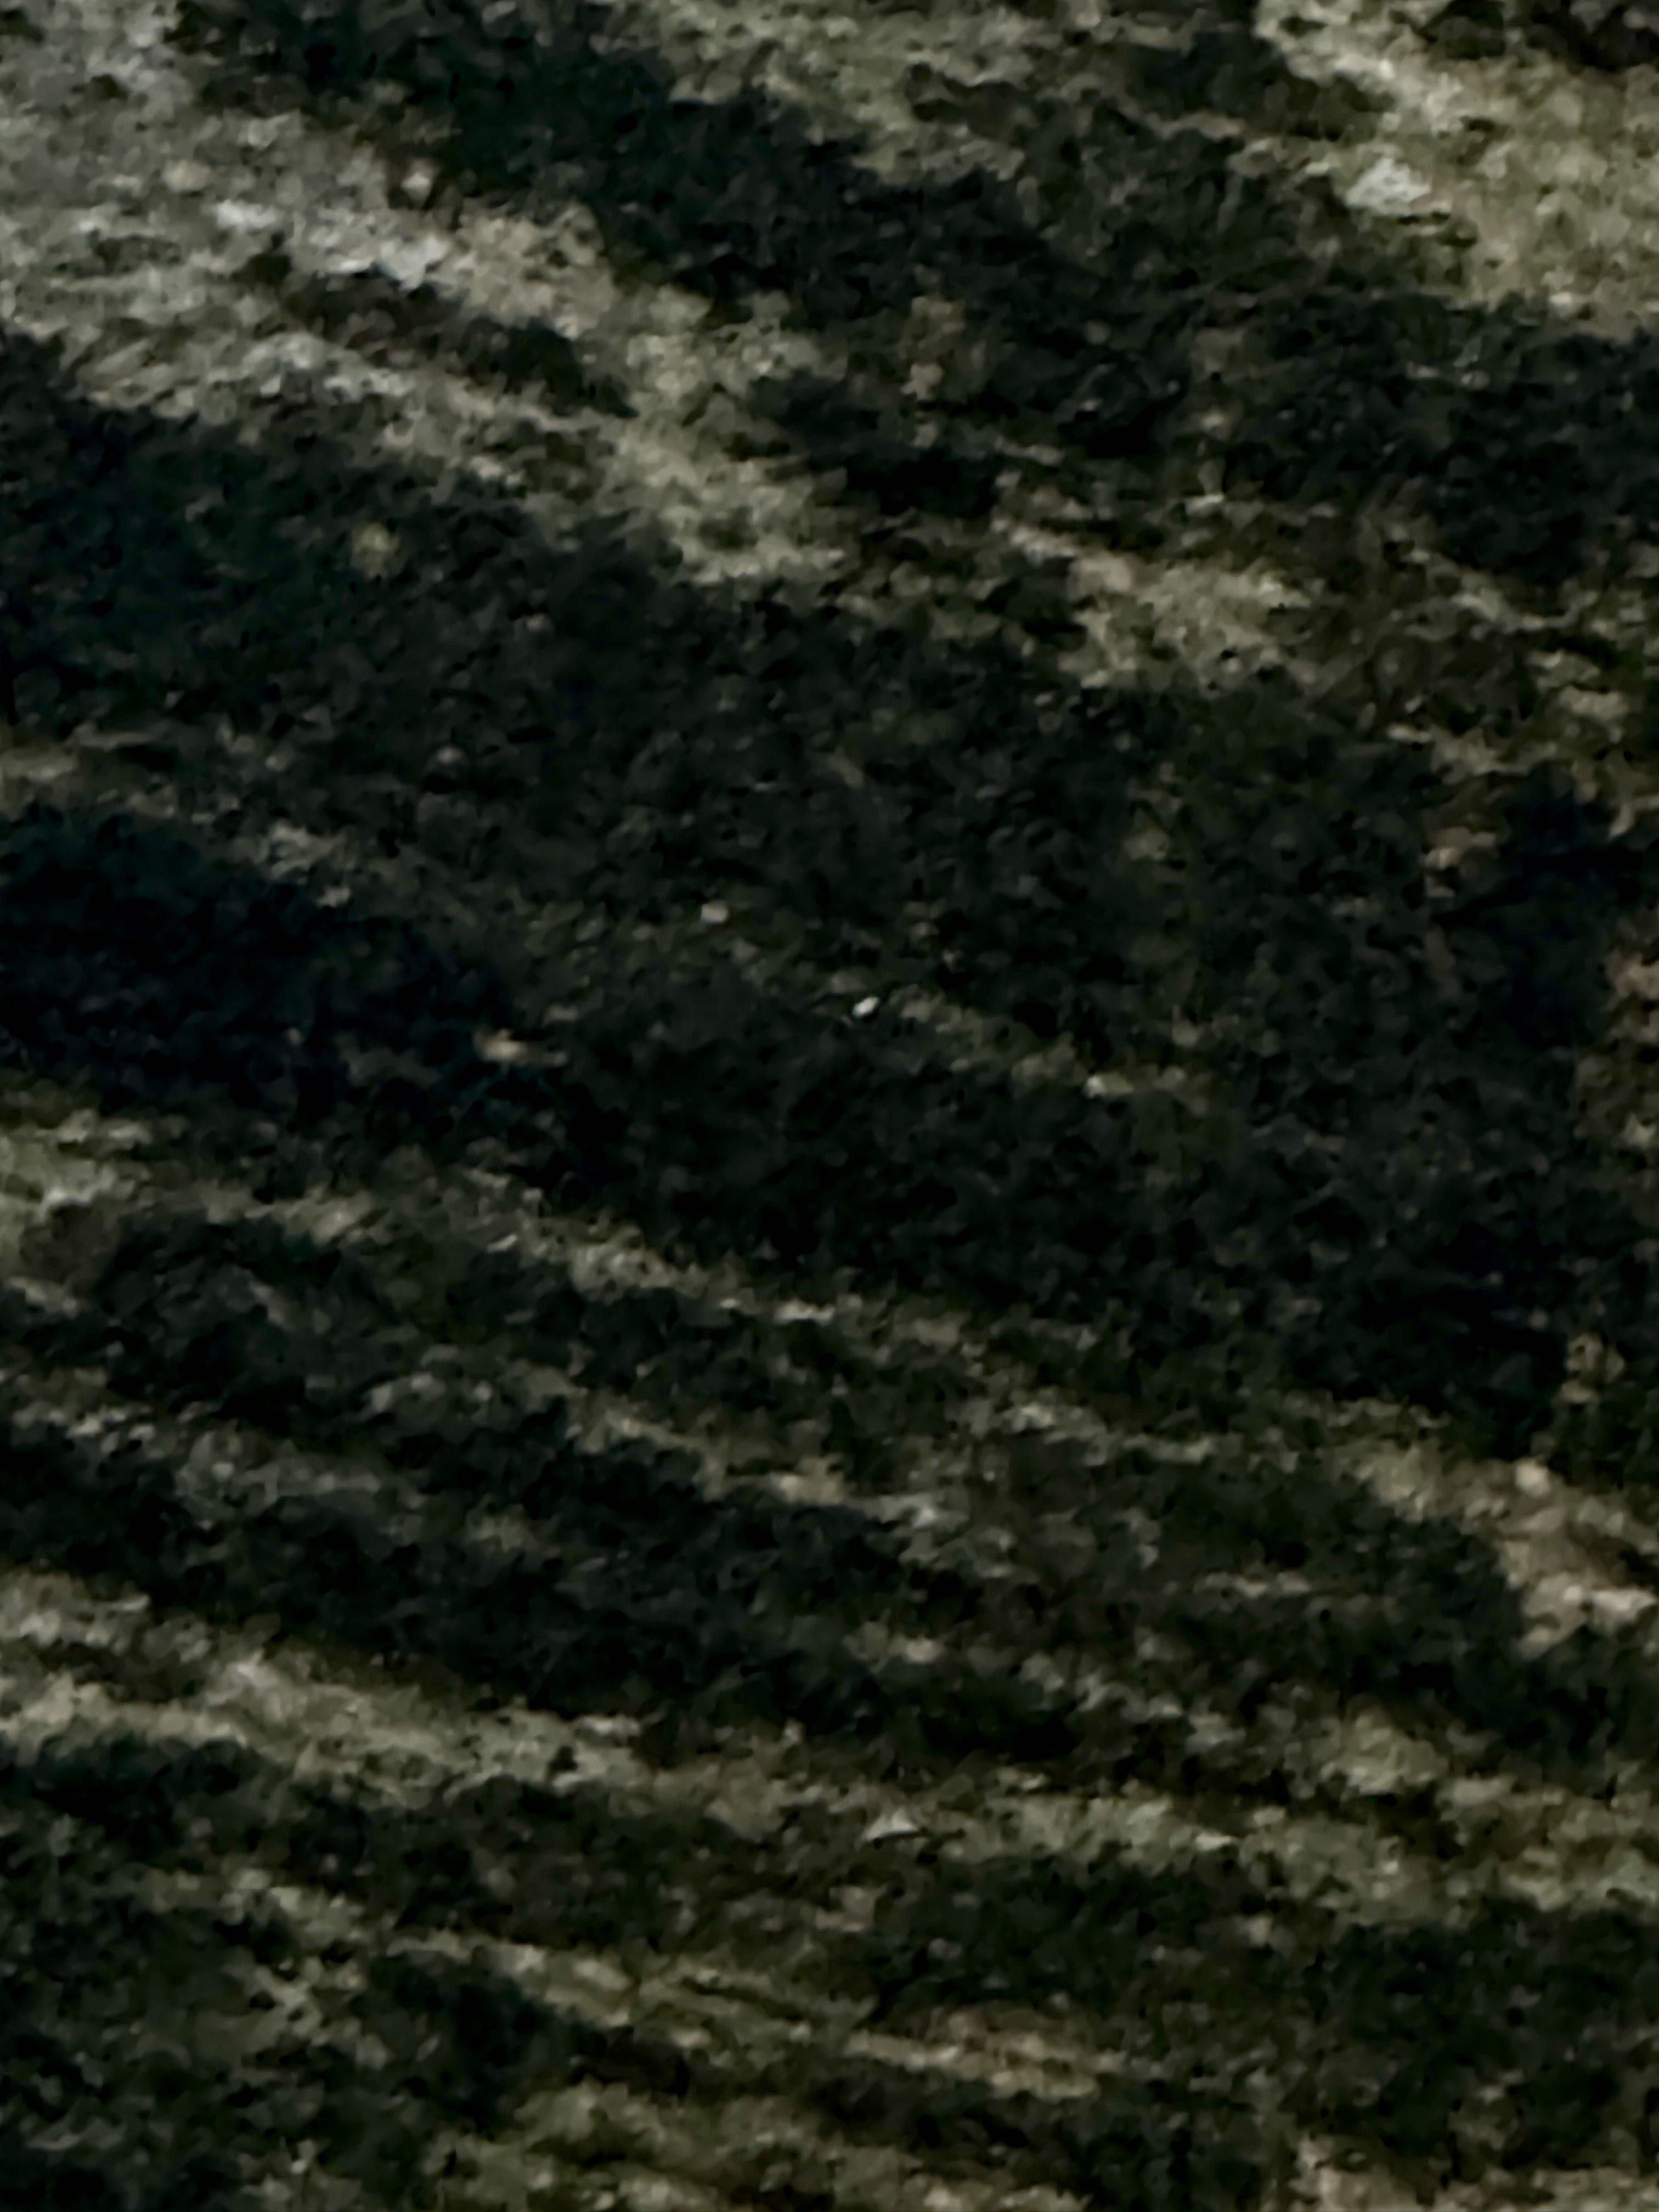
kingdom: Fungi
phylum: Ascomycota
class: Leotiomycetes
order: Rhytismatales
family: Ascodichaenaceae
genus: Ascodichaena
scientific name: Ascodichaena rugosa
